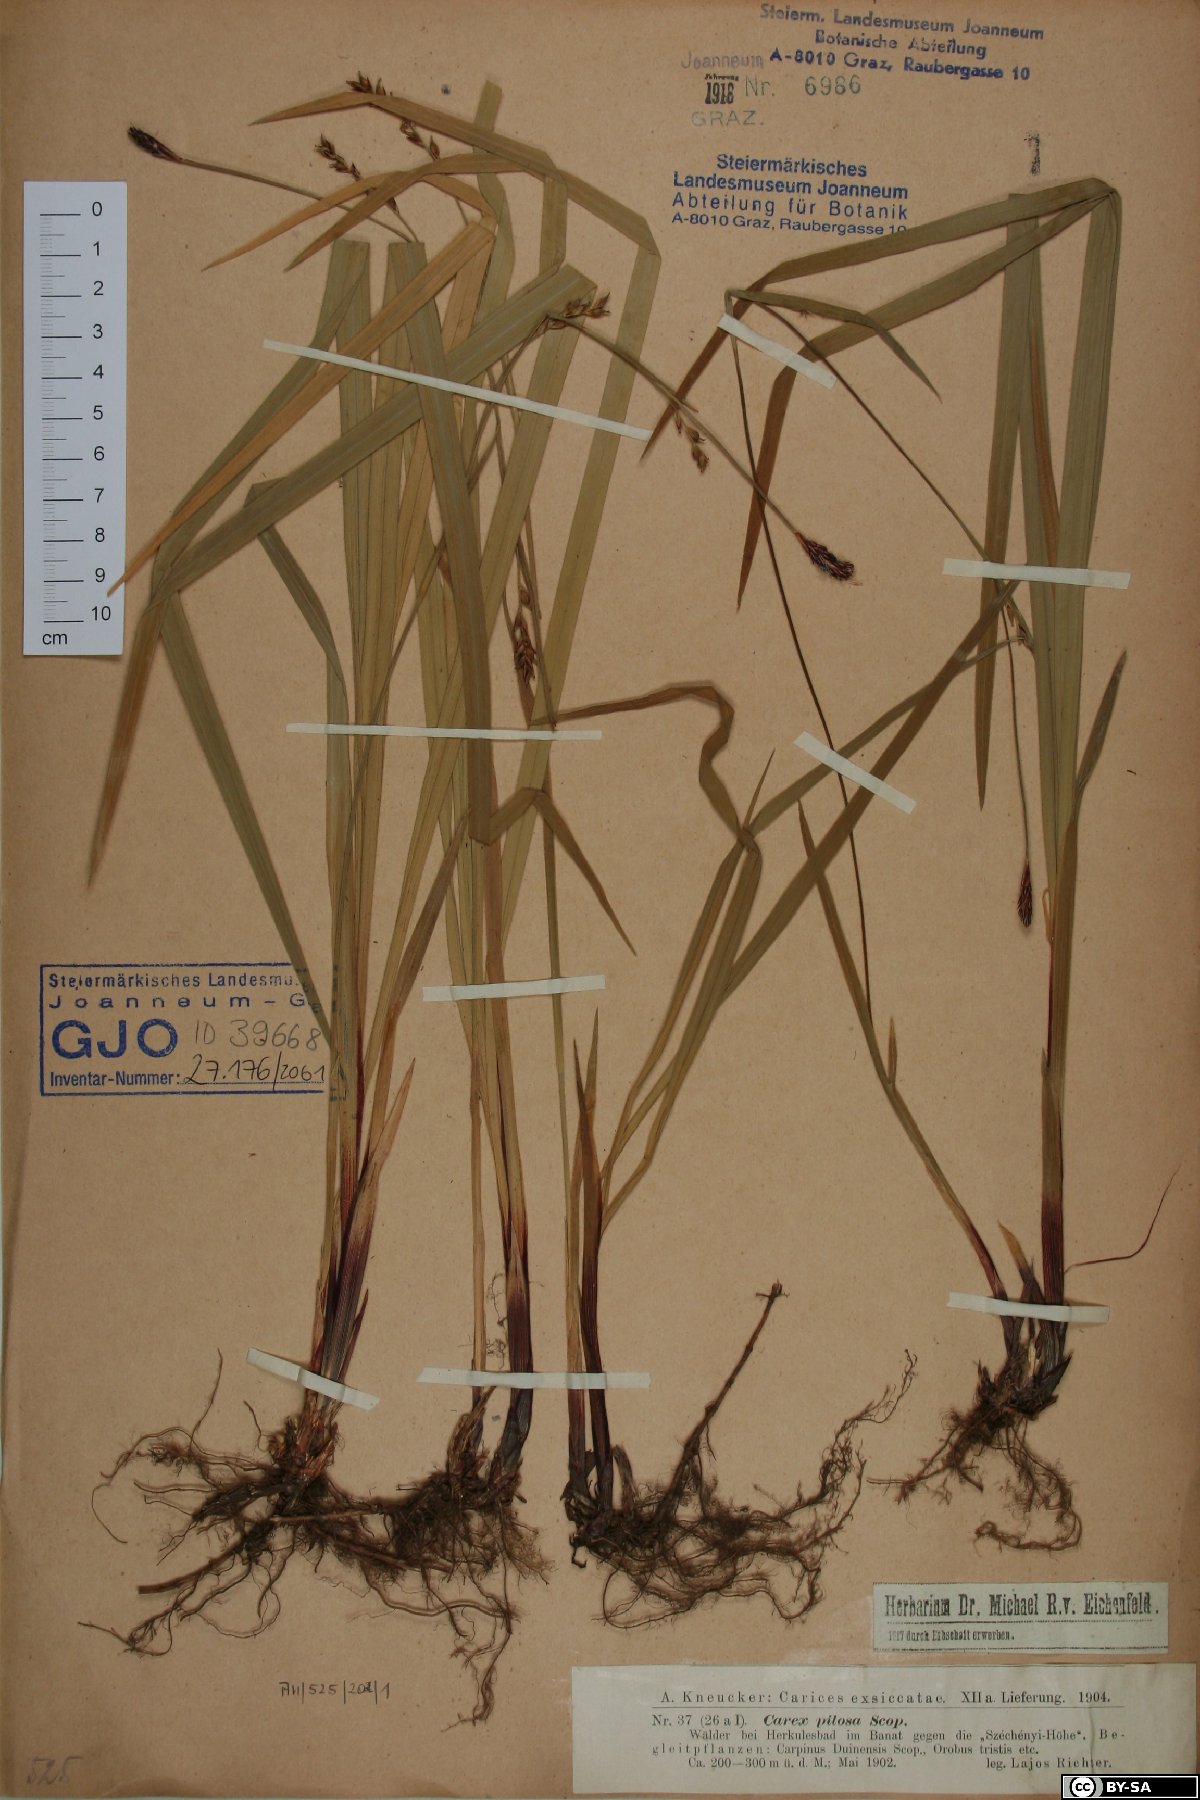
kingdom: Plantae
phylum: Tracheophyta
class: Liliopsida
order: Poales
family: Cyperaceae
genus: Carex
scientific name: Carex pilosa
